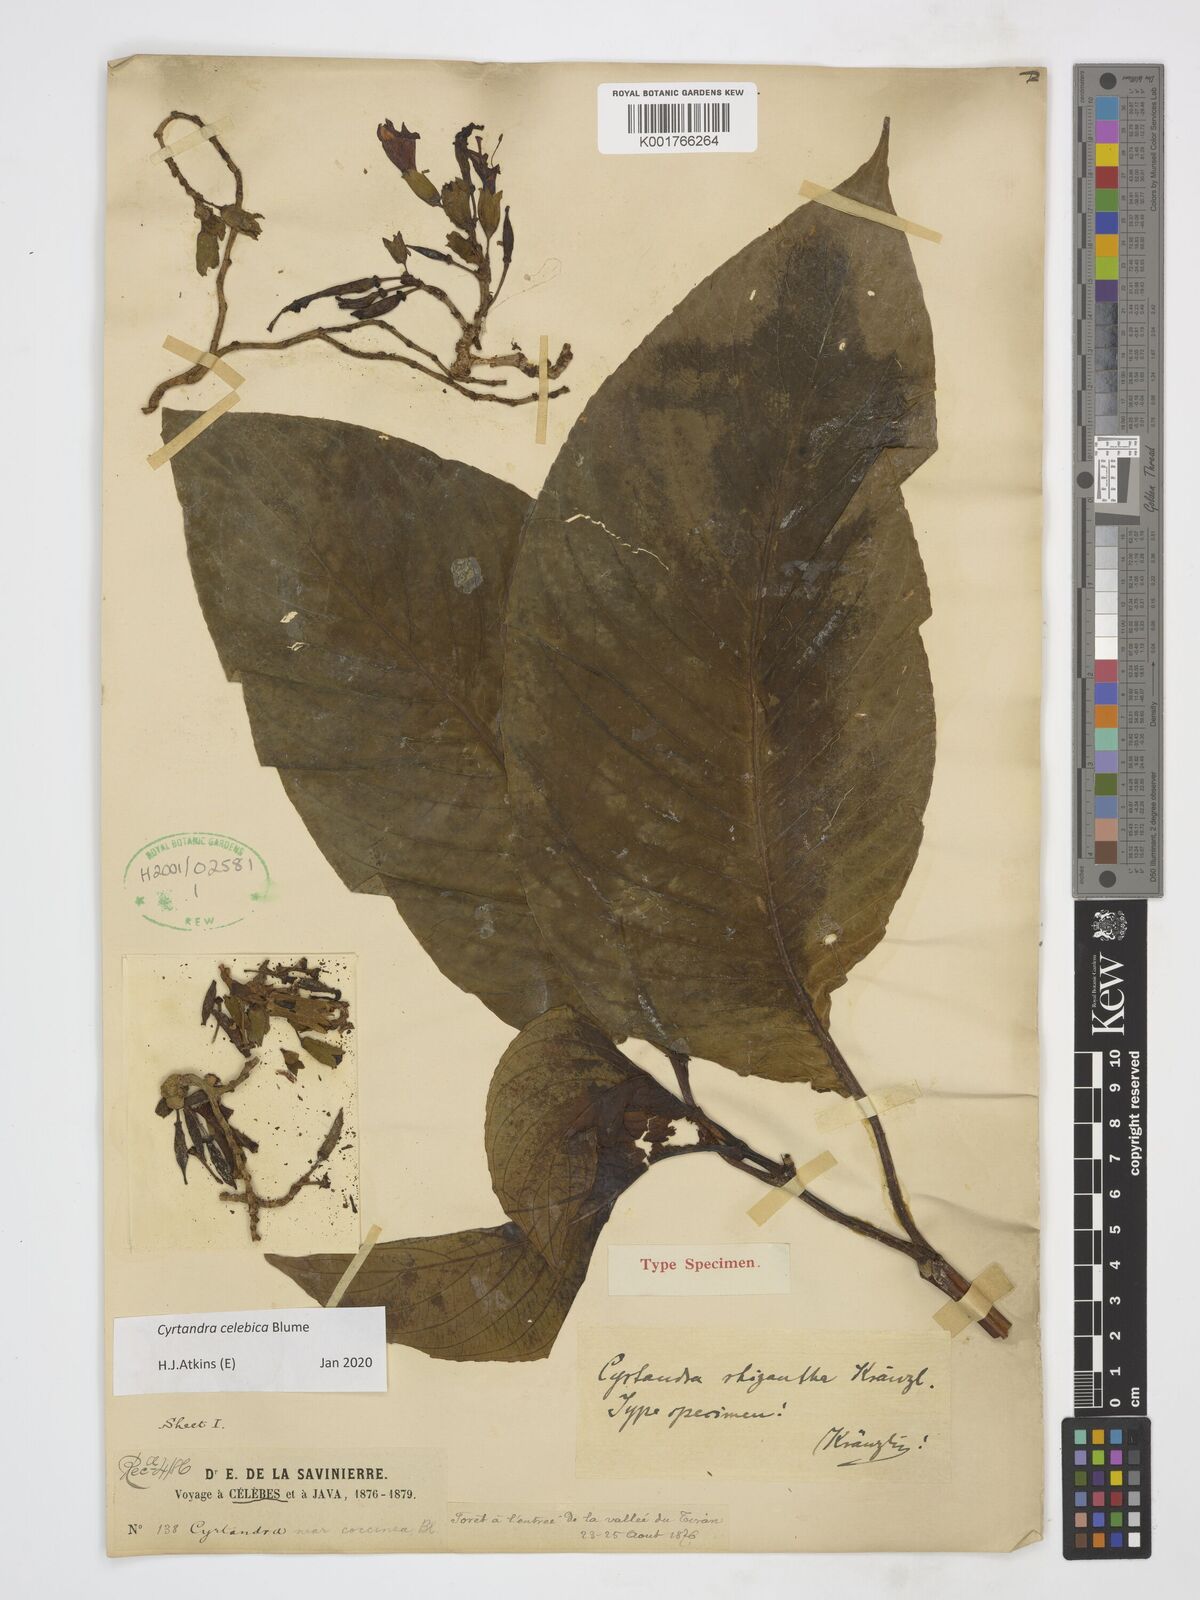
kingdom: Plantae
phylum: Tracheophyta
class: Magnoliopsida
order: Lamiales
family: Gesneriaceae
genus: Cyrtandra
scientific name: Cyrtandra coccinea
